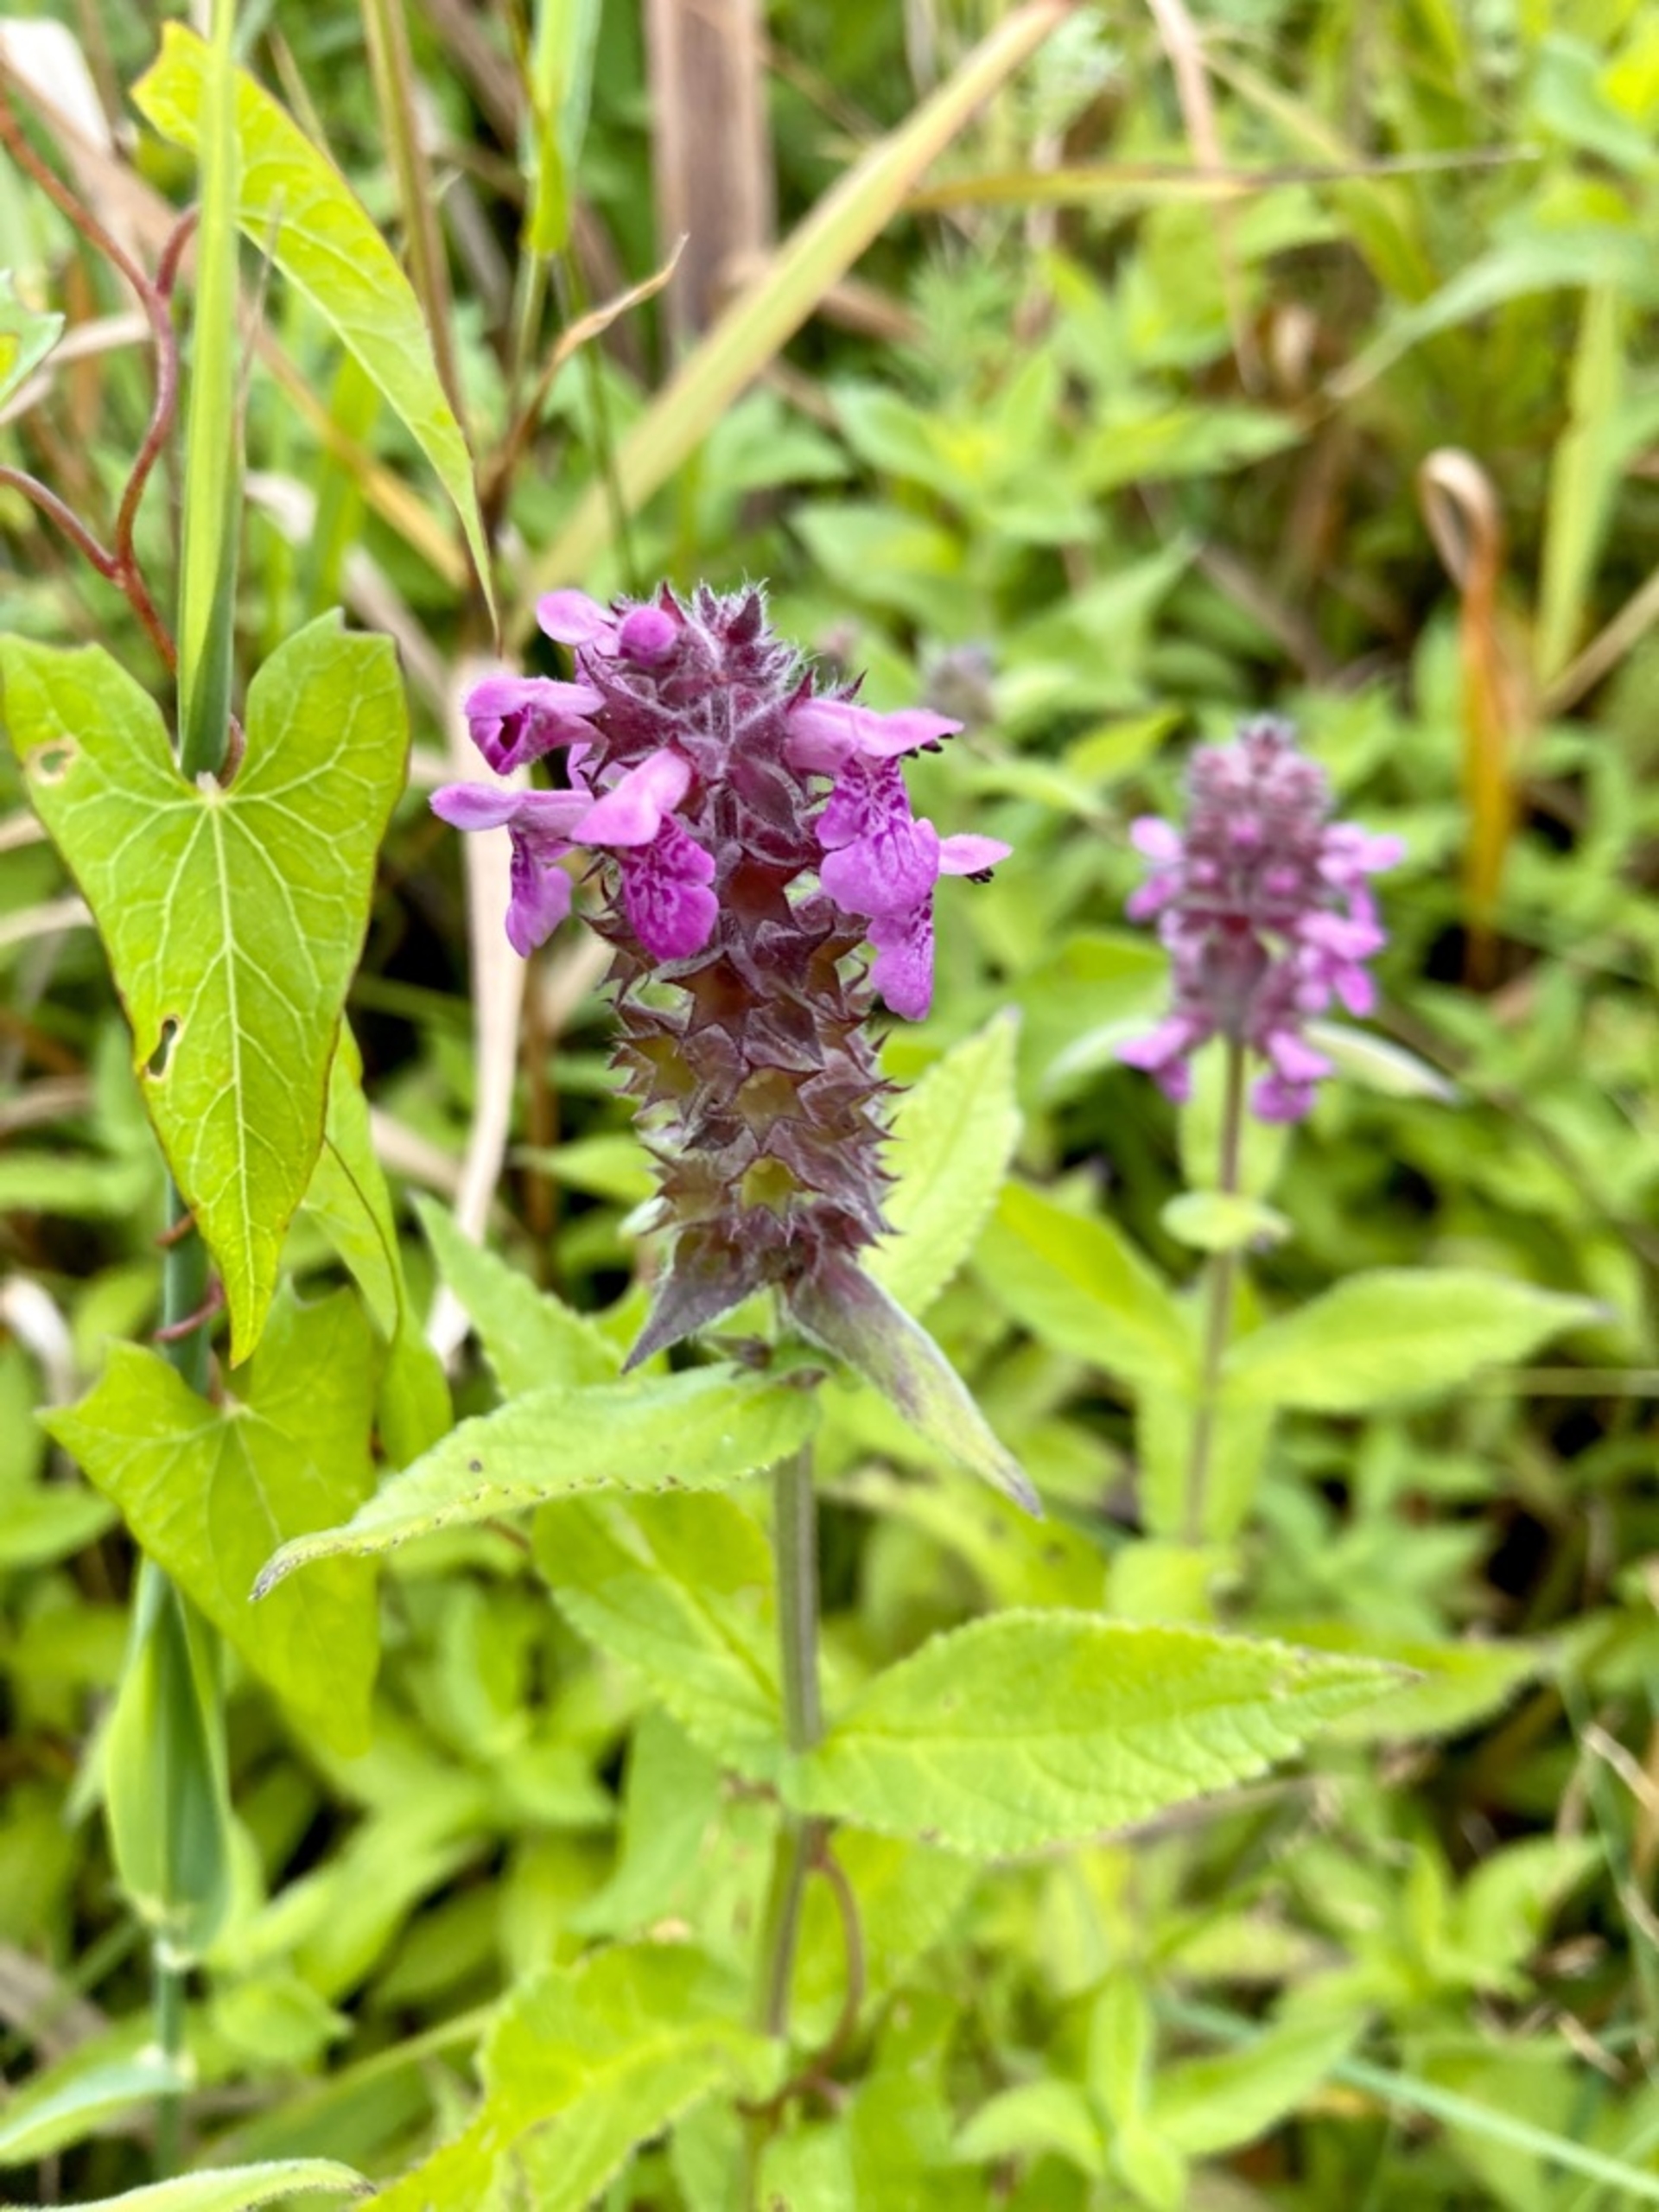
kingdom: Plantae
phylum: Tracheophyta
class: Magnoliopsida
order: Lamiales
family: Lamiaceae
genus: Stachys
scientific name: Stachys palustris
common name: Kær-galtetand
